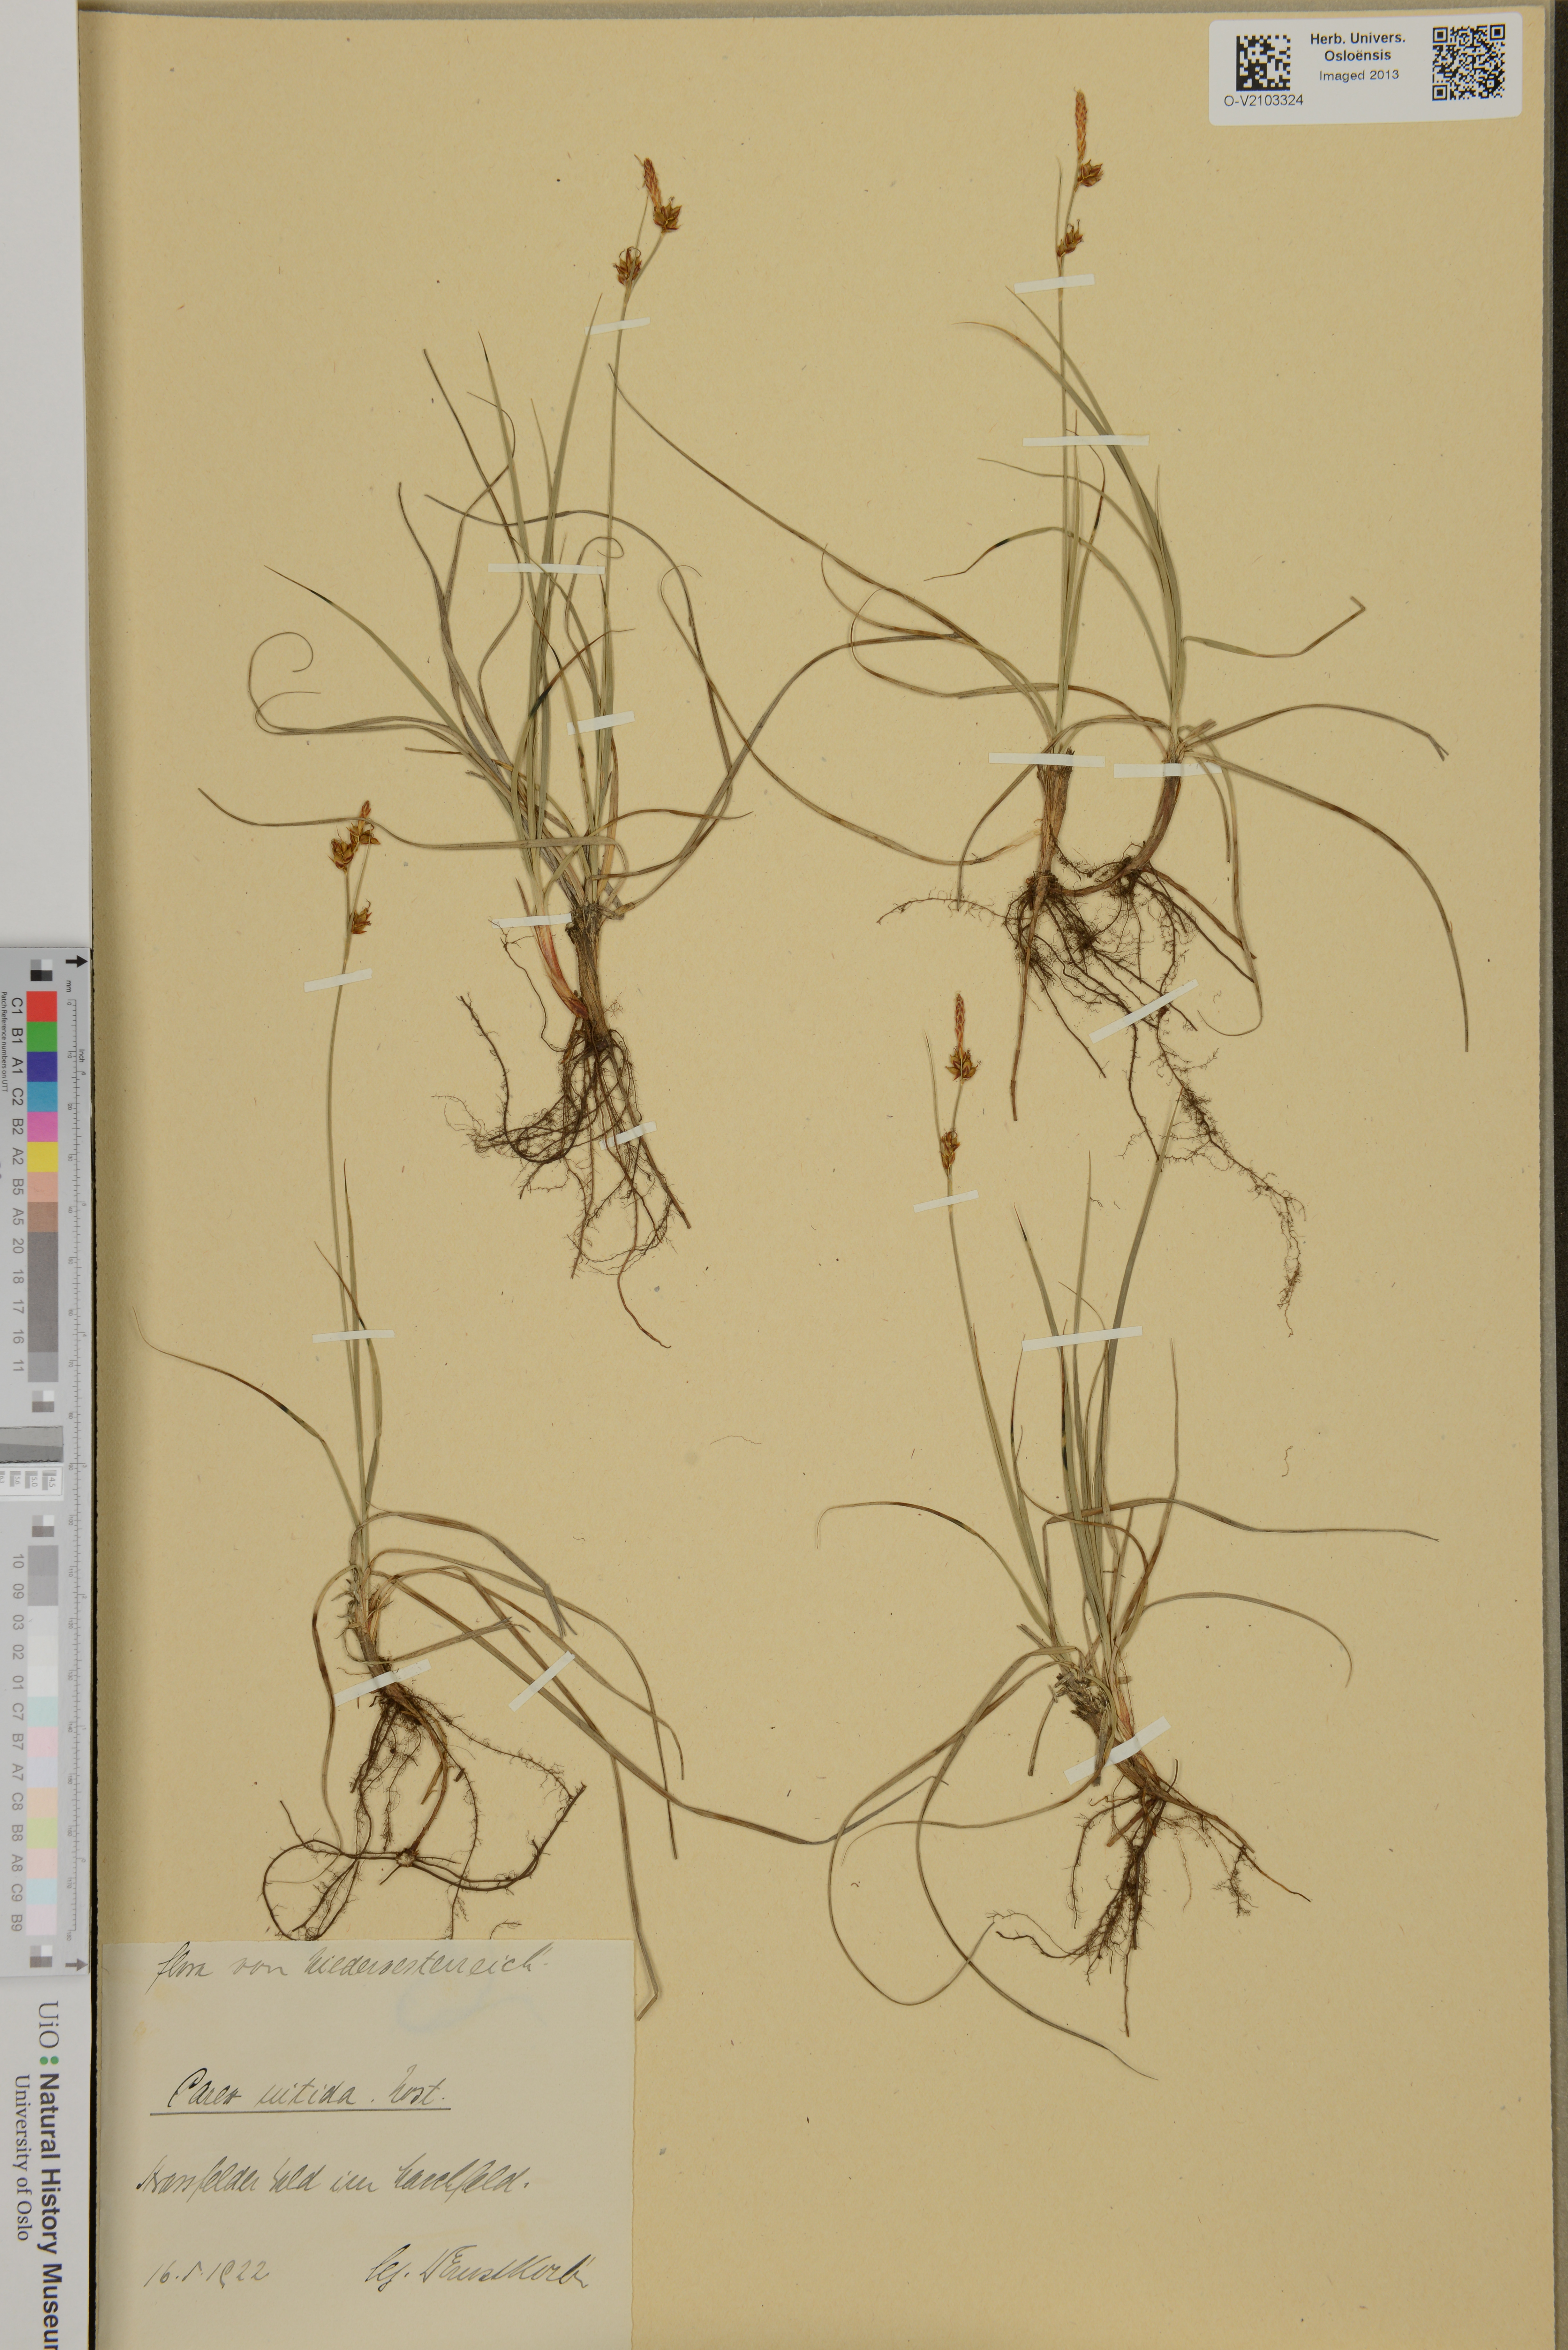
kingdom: Plantae
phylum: Tracheophyta
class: Liliopsida
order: Poales
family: Cyperaceae
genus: Carex
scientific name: Carex nitida
